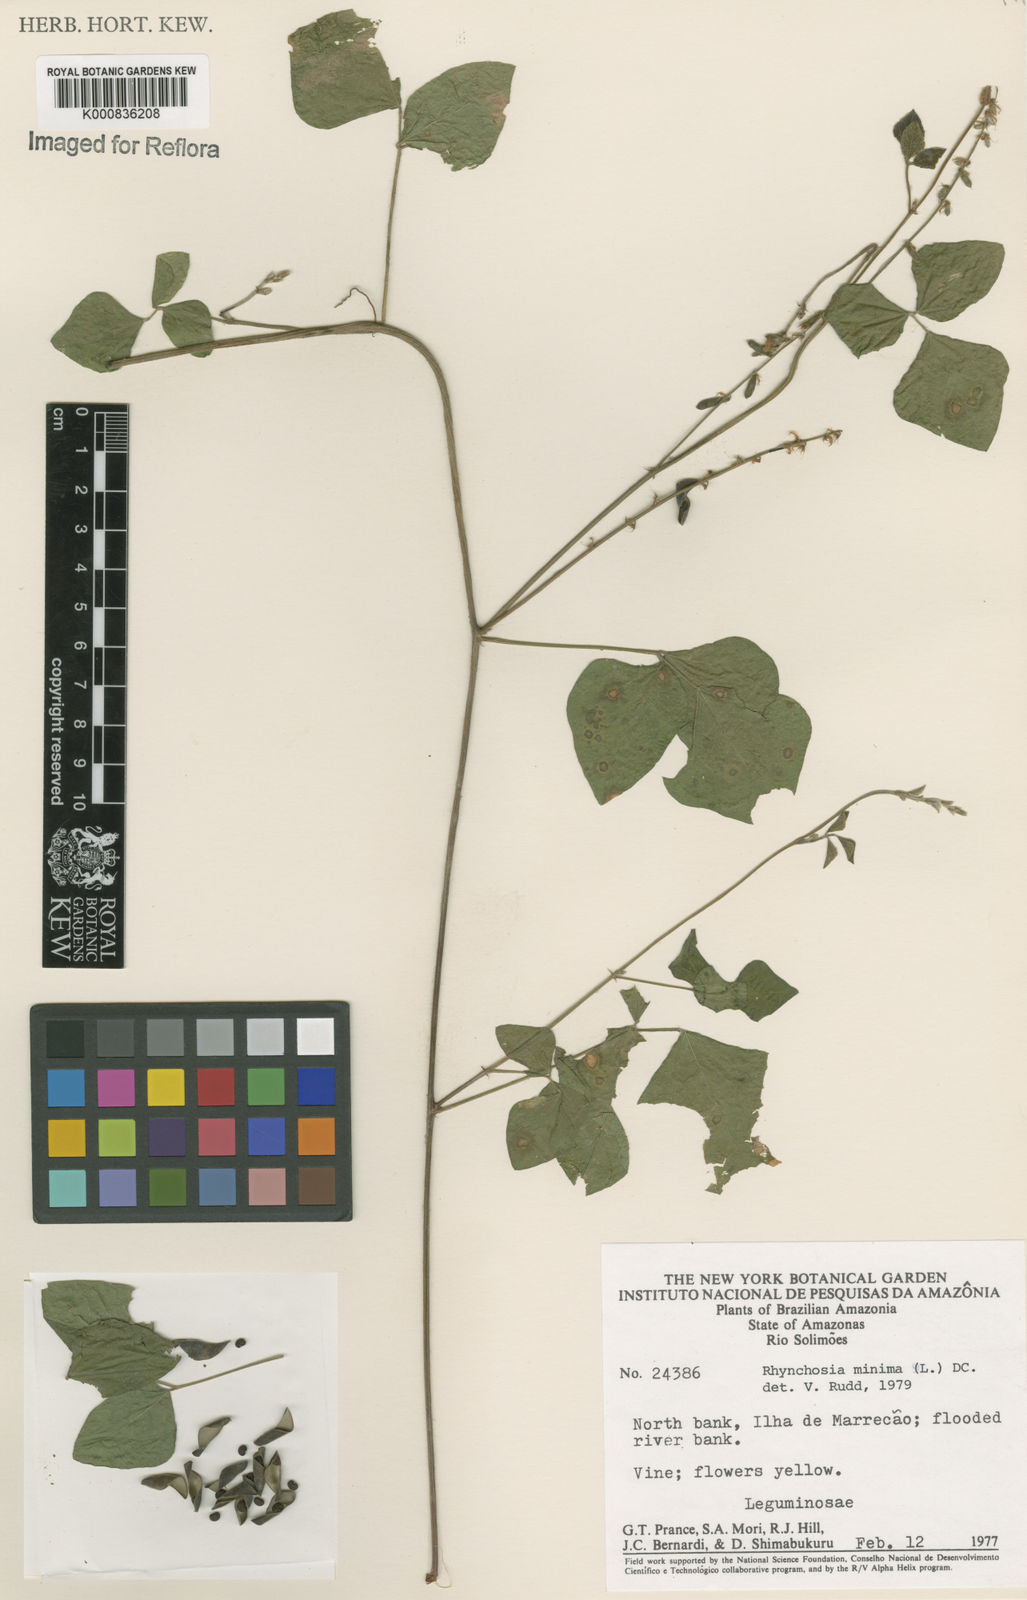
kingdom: Plantae
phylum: Tracheophyta
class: Magnoliopsida
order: Fabales
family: Fabaceae
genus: Rhynchosia
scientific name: Rhynchosia minima
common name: Least snoutbean
